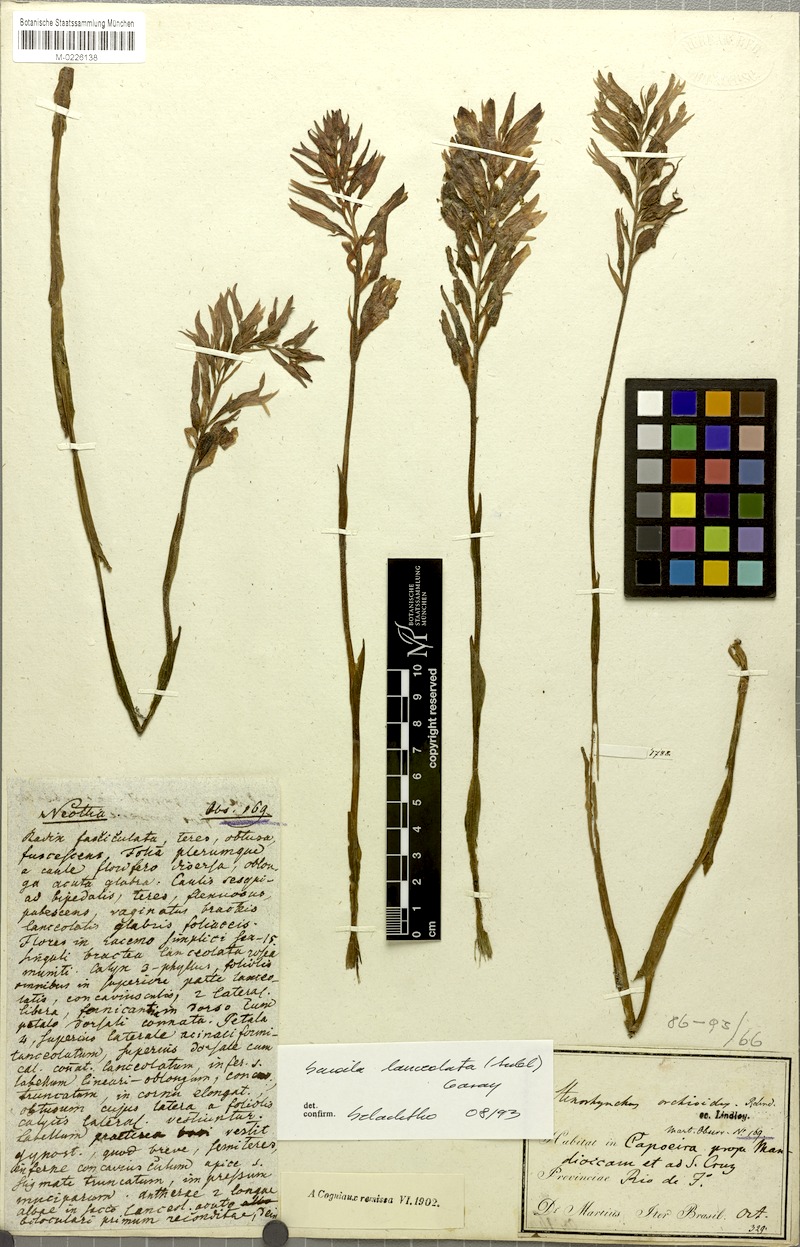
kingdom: Plantae
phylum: Tracheophyta
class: Liliopsida
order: Asparagales
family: Orchidaceae
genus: Sacoila
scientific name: Sacoila lanceolata
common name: Leafless beaked ladiestresses
